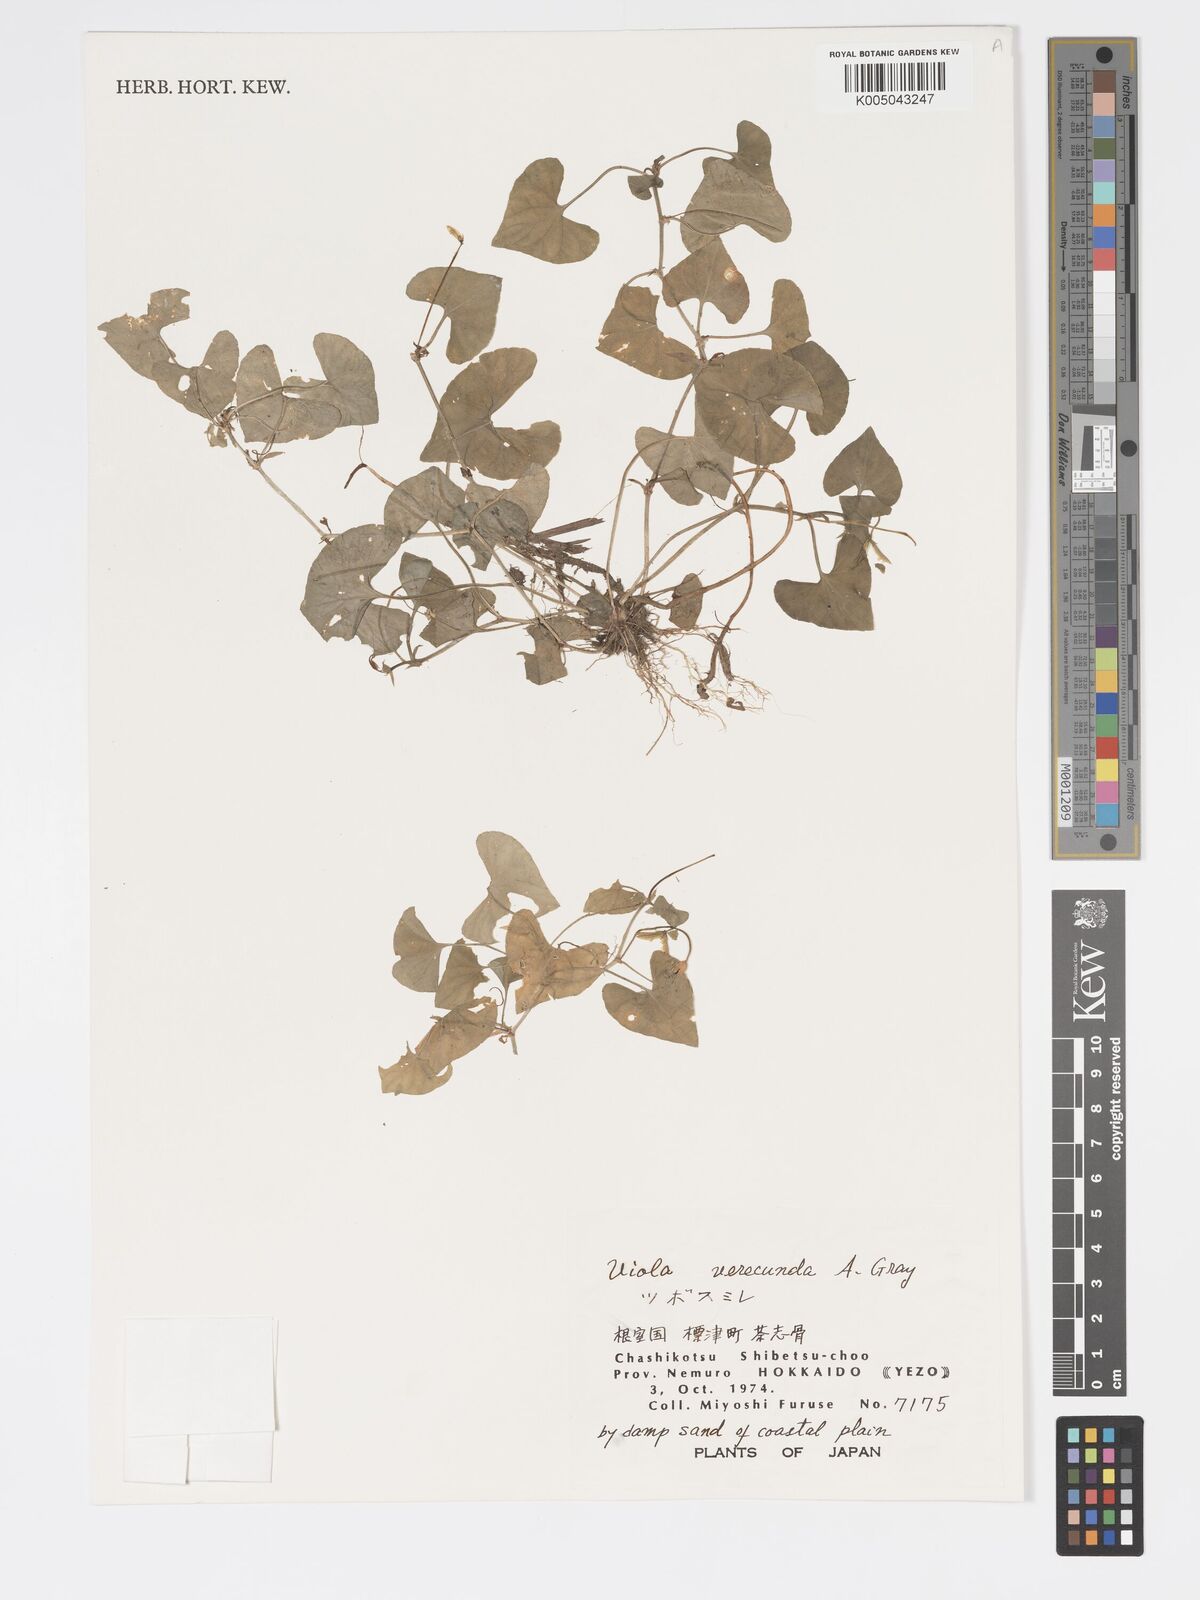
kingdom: Plantae
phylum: Tracheophyta
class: Magnoliopsida
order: Malpighiales
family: Violaceae
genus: Viola
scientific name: Viola hamiltoniana
